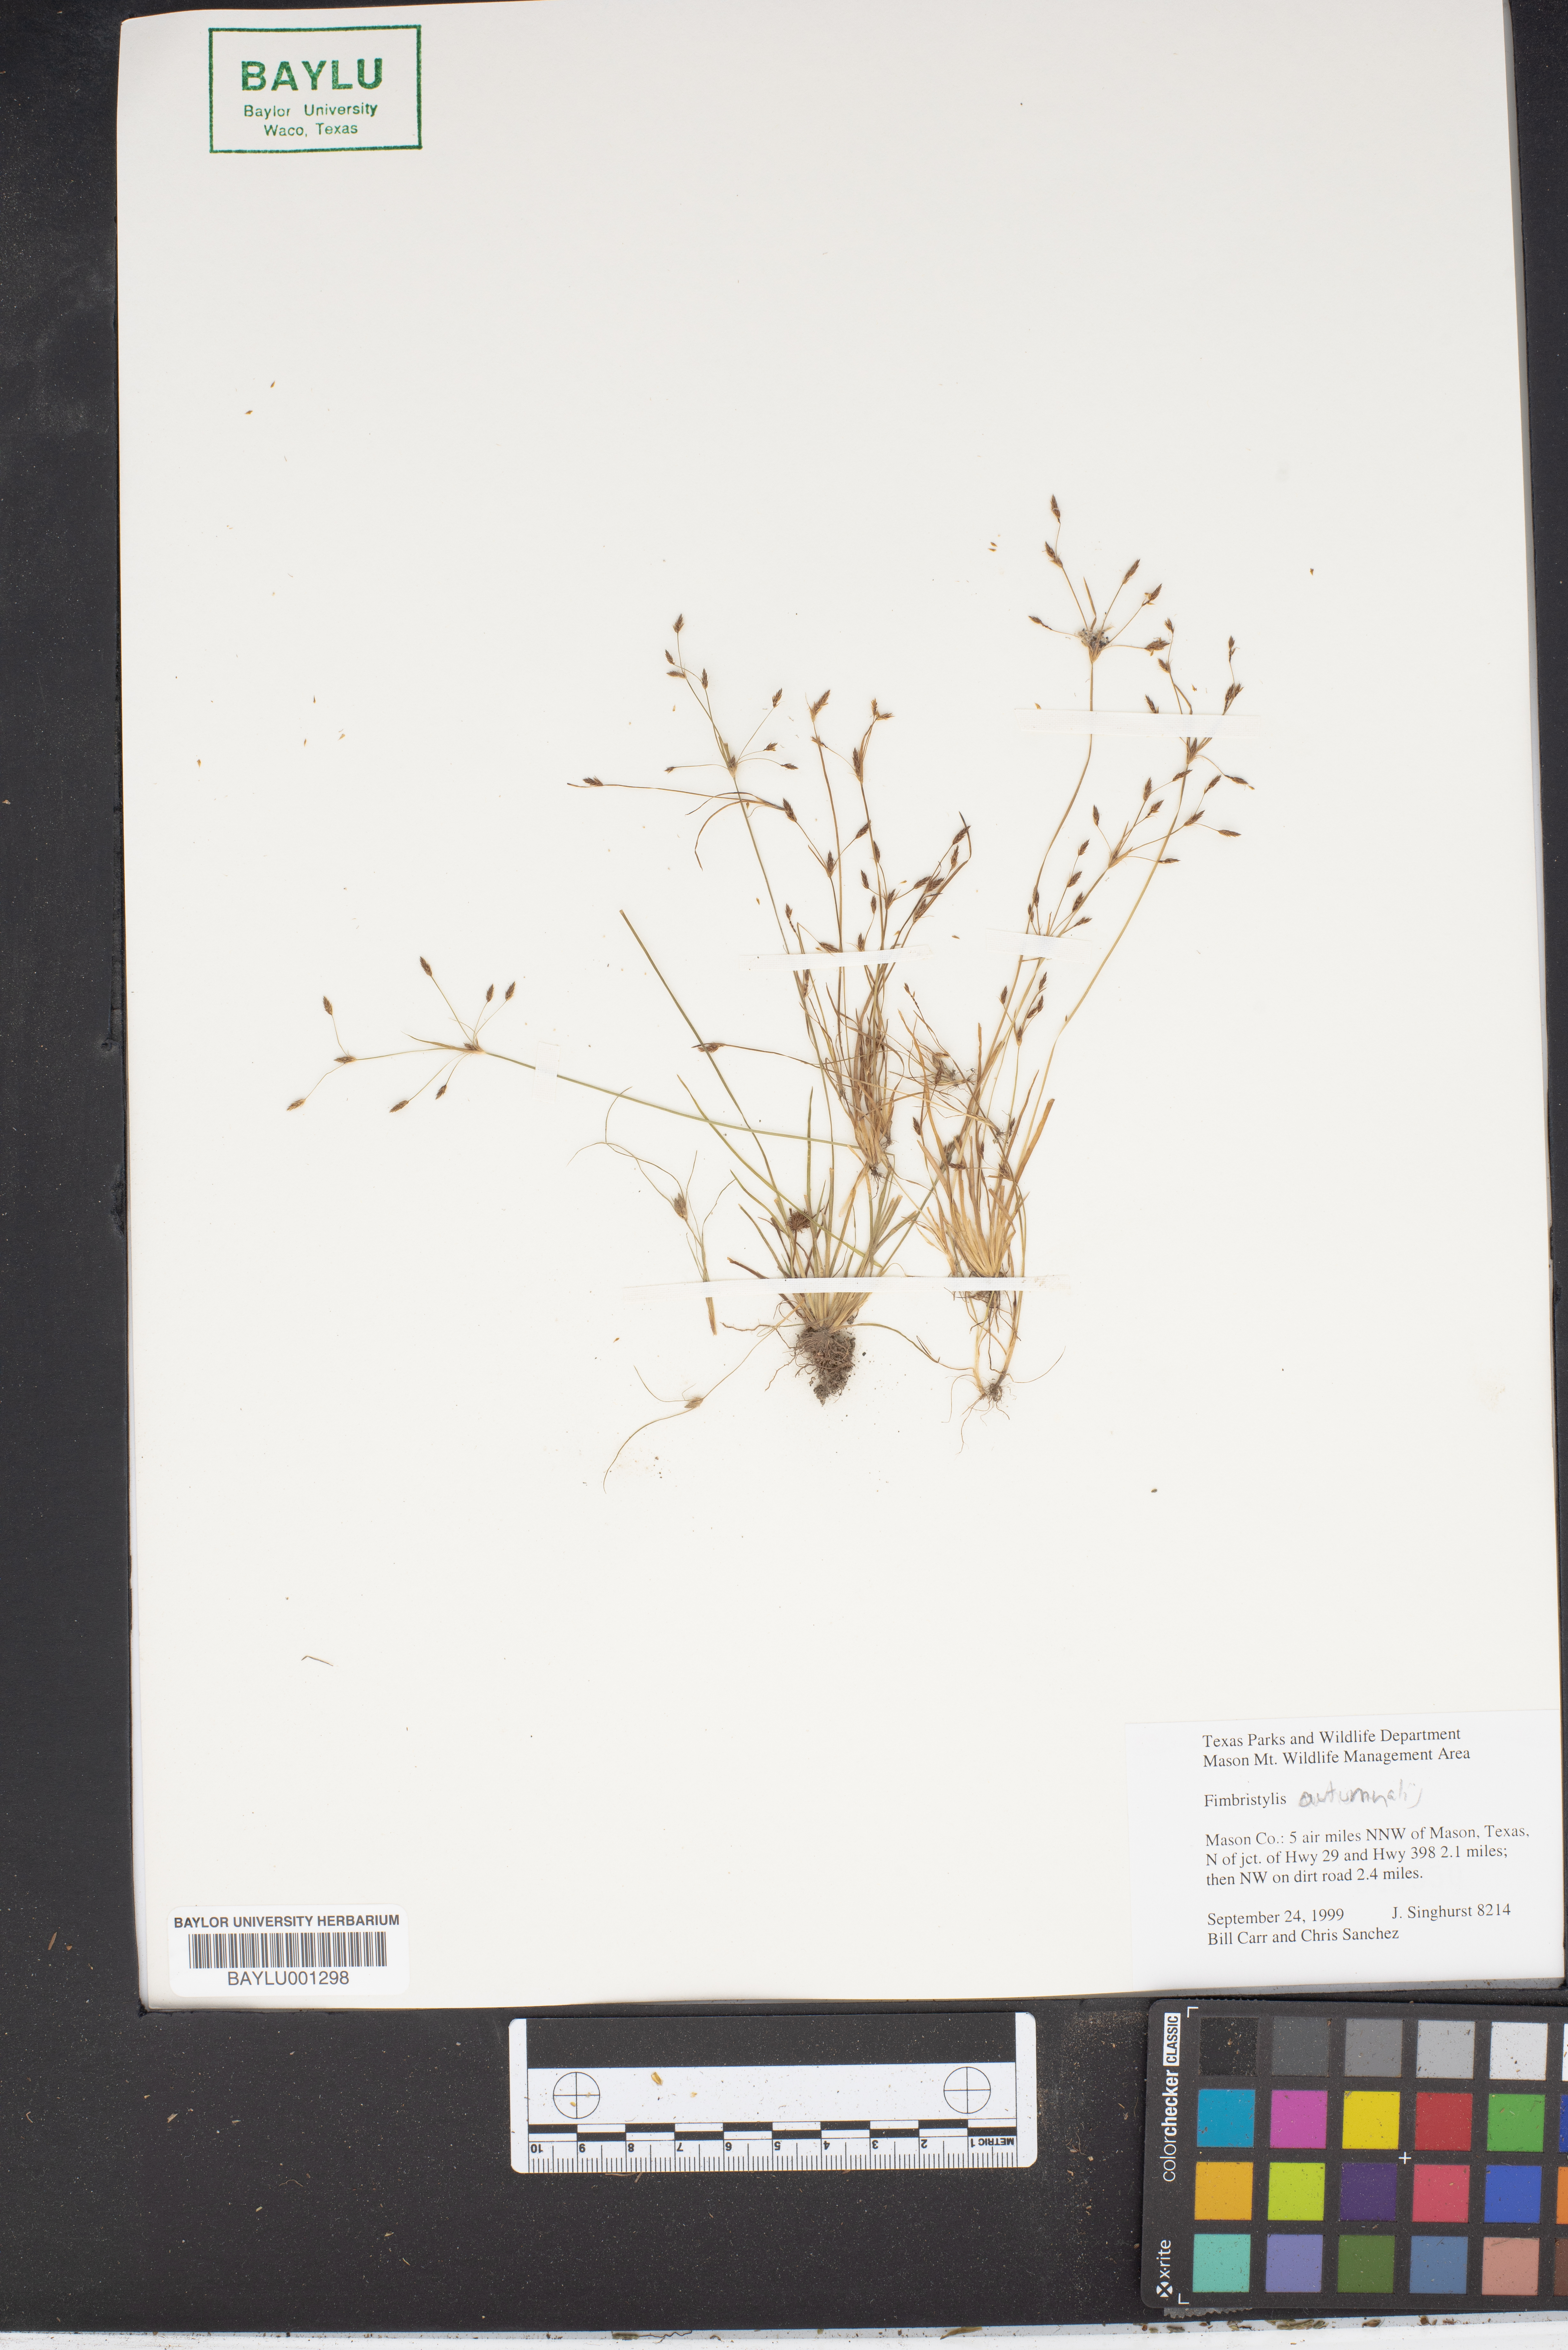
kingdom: Plantae
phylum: Tracheophyta
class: Liliopsida
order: Poales
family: Cyperaceae
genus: Fimbristylis
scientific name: Fimbristylis autumnalis
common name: Slender fimbristylis
